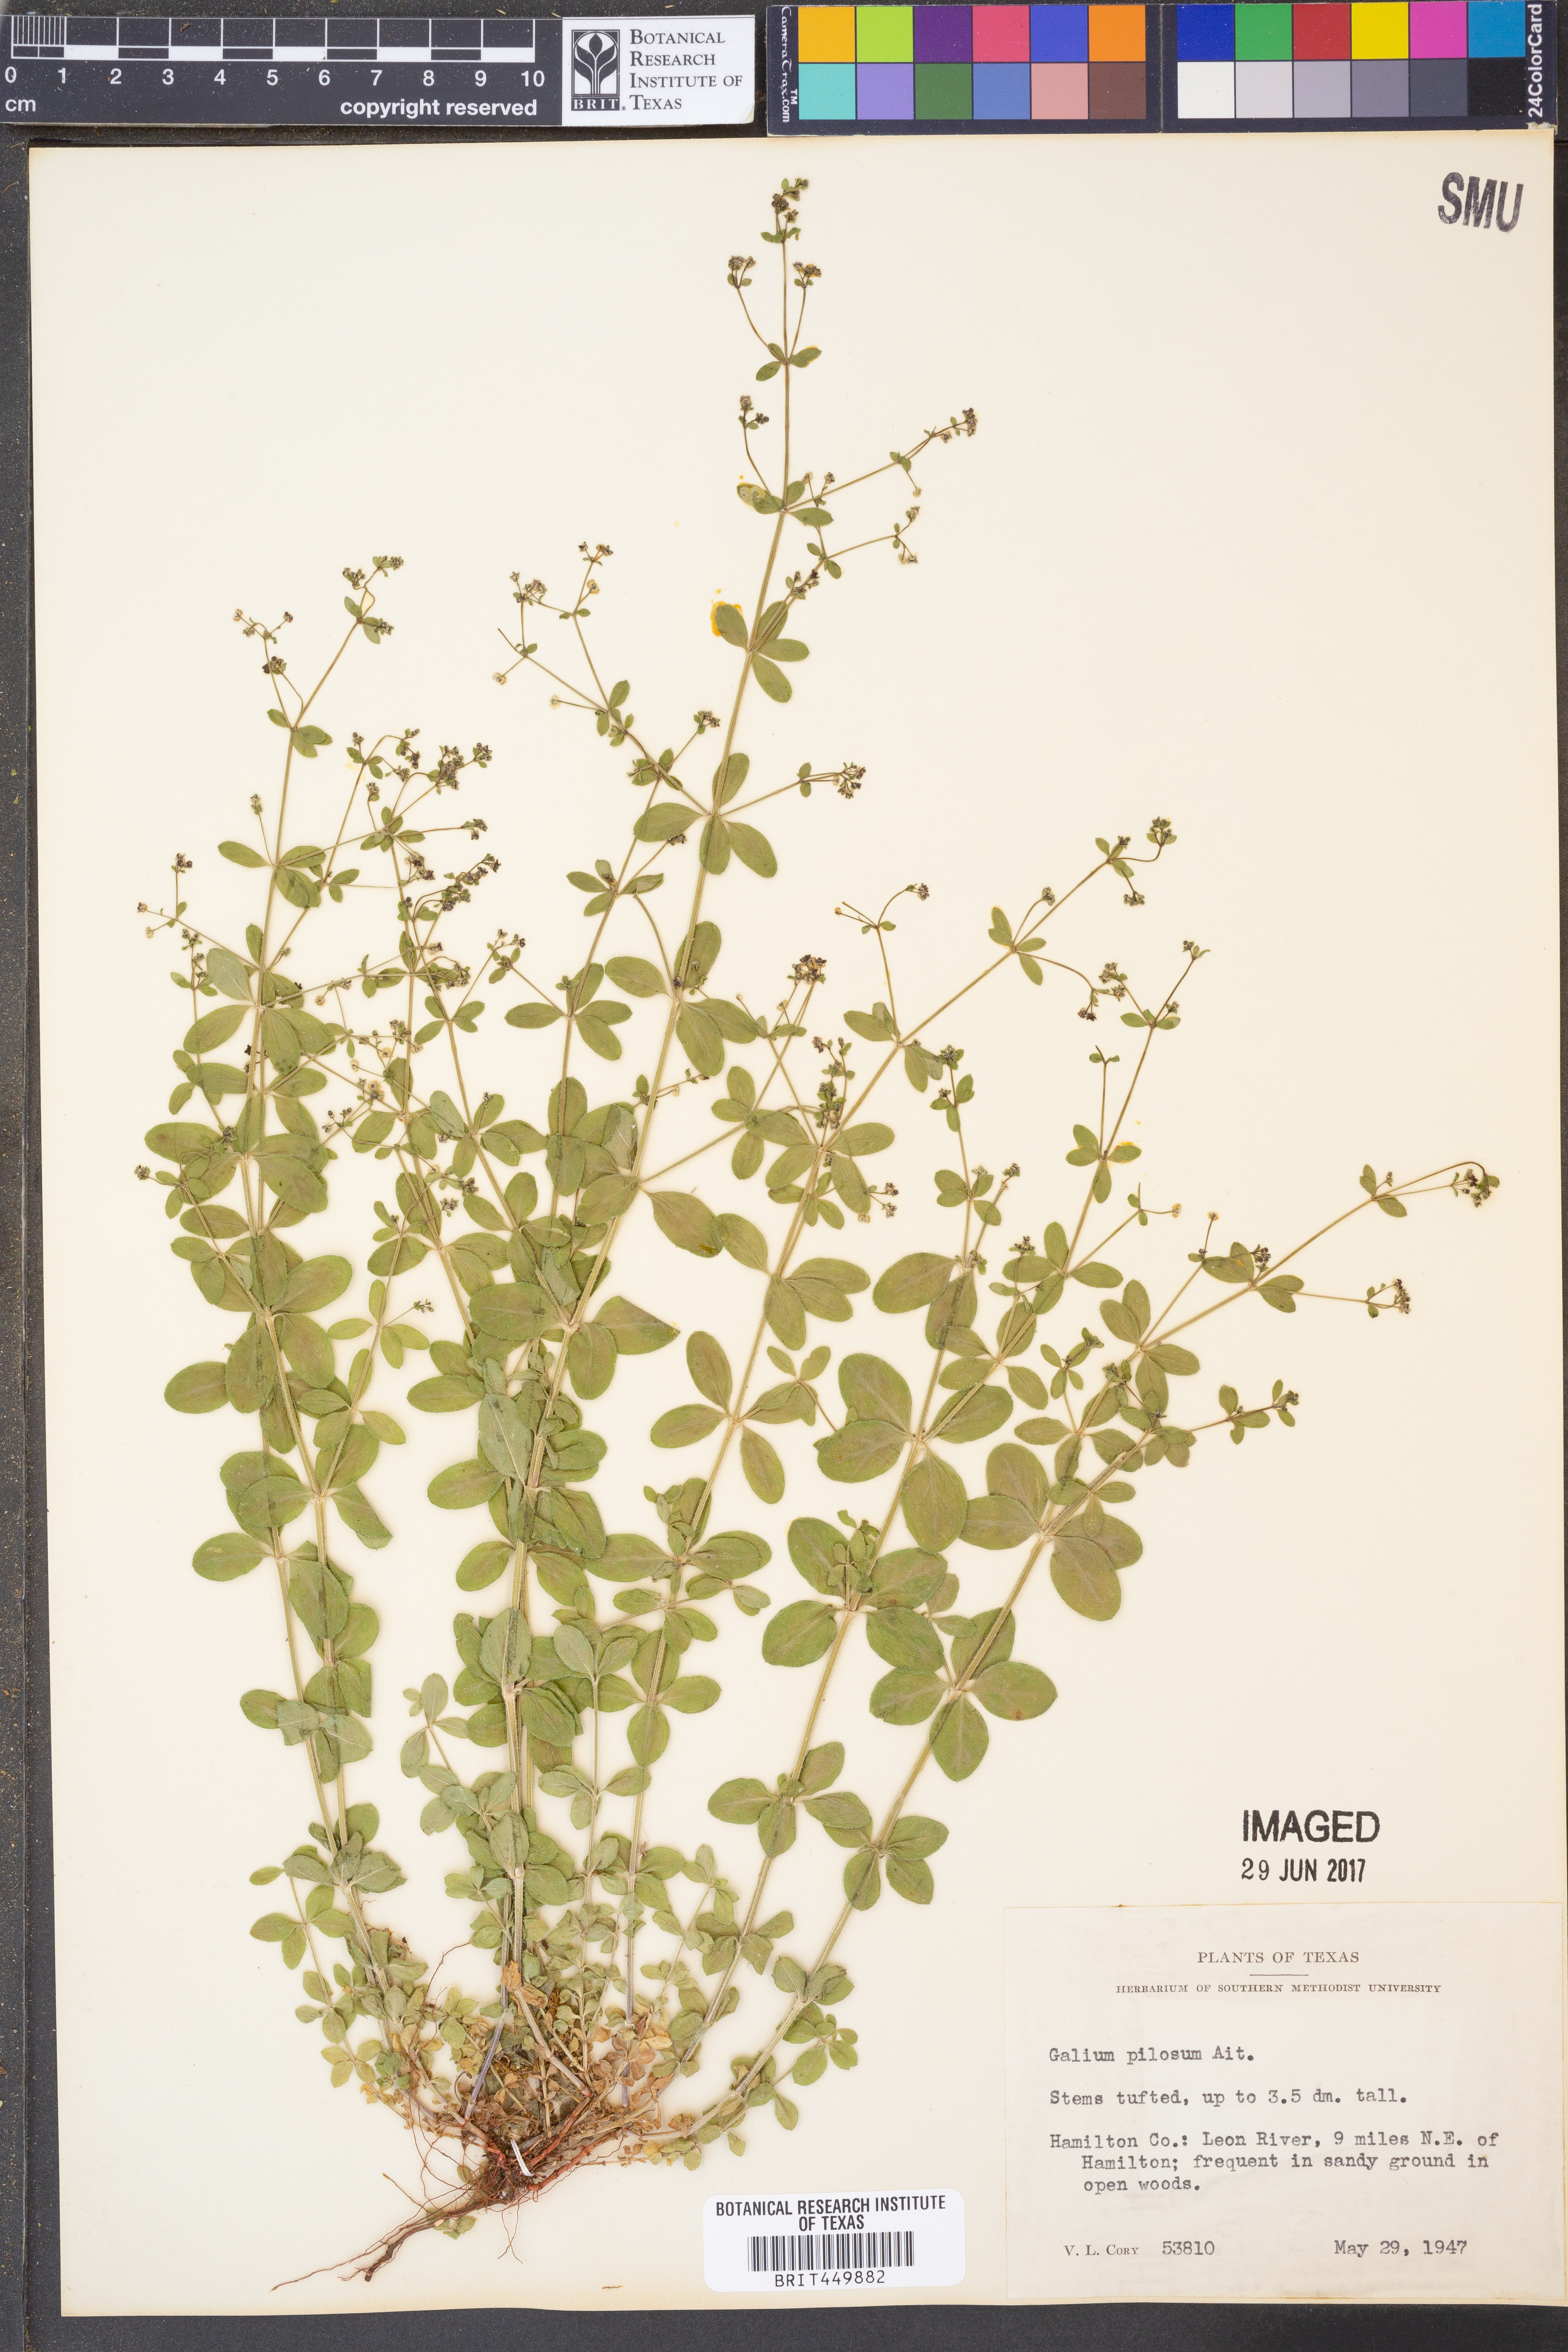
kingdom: Plantae
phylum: Tracheophyta
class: Magnoliopsida
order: Gentianales
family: Rubiaceae
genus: Galium
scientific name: Galium pilosum
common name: Hairy bedstraw
